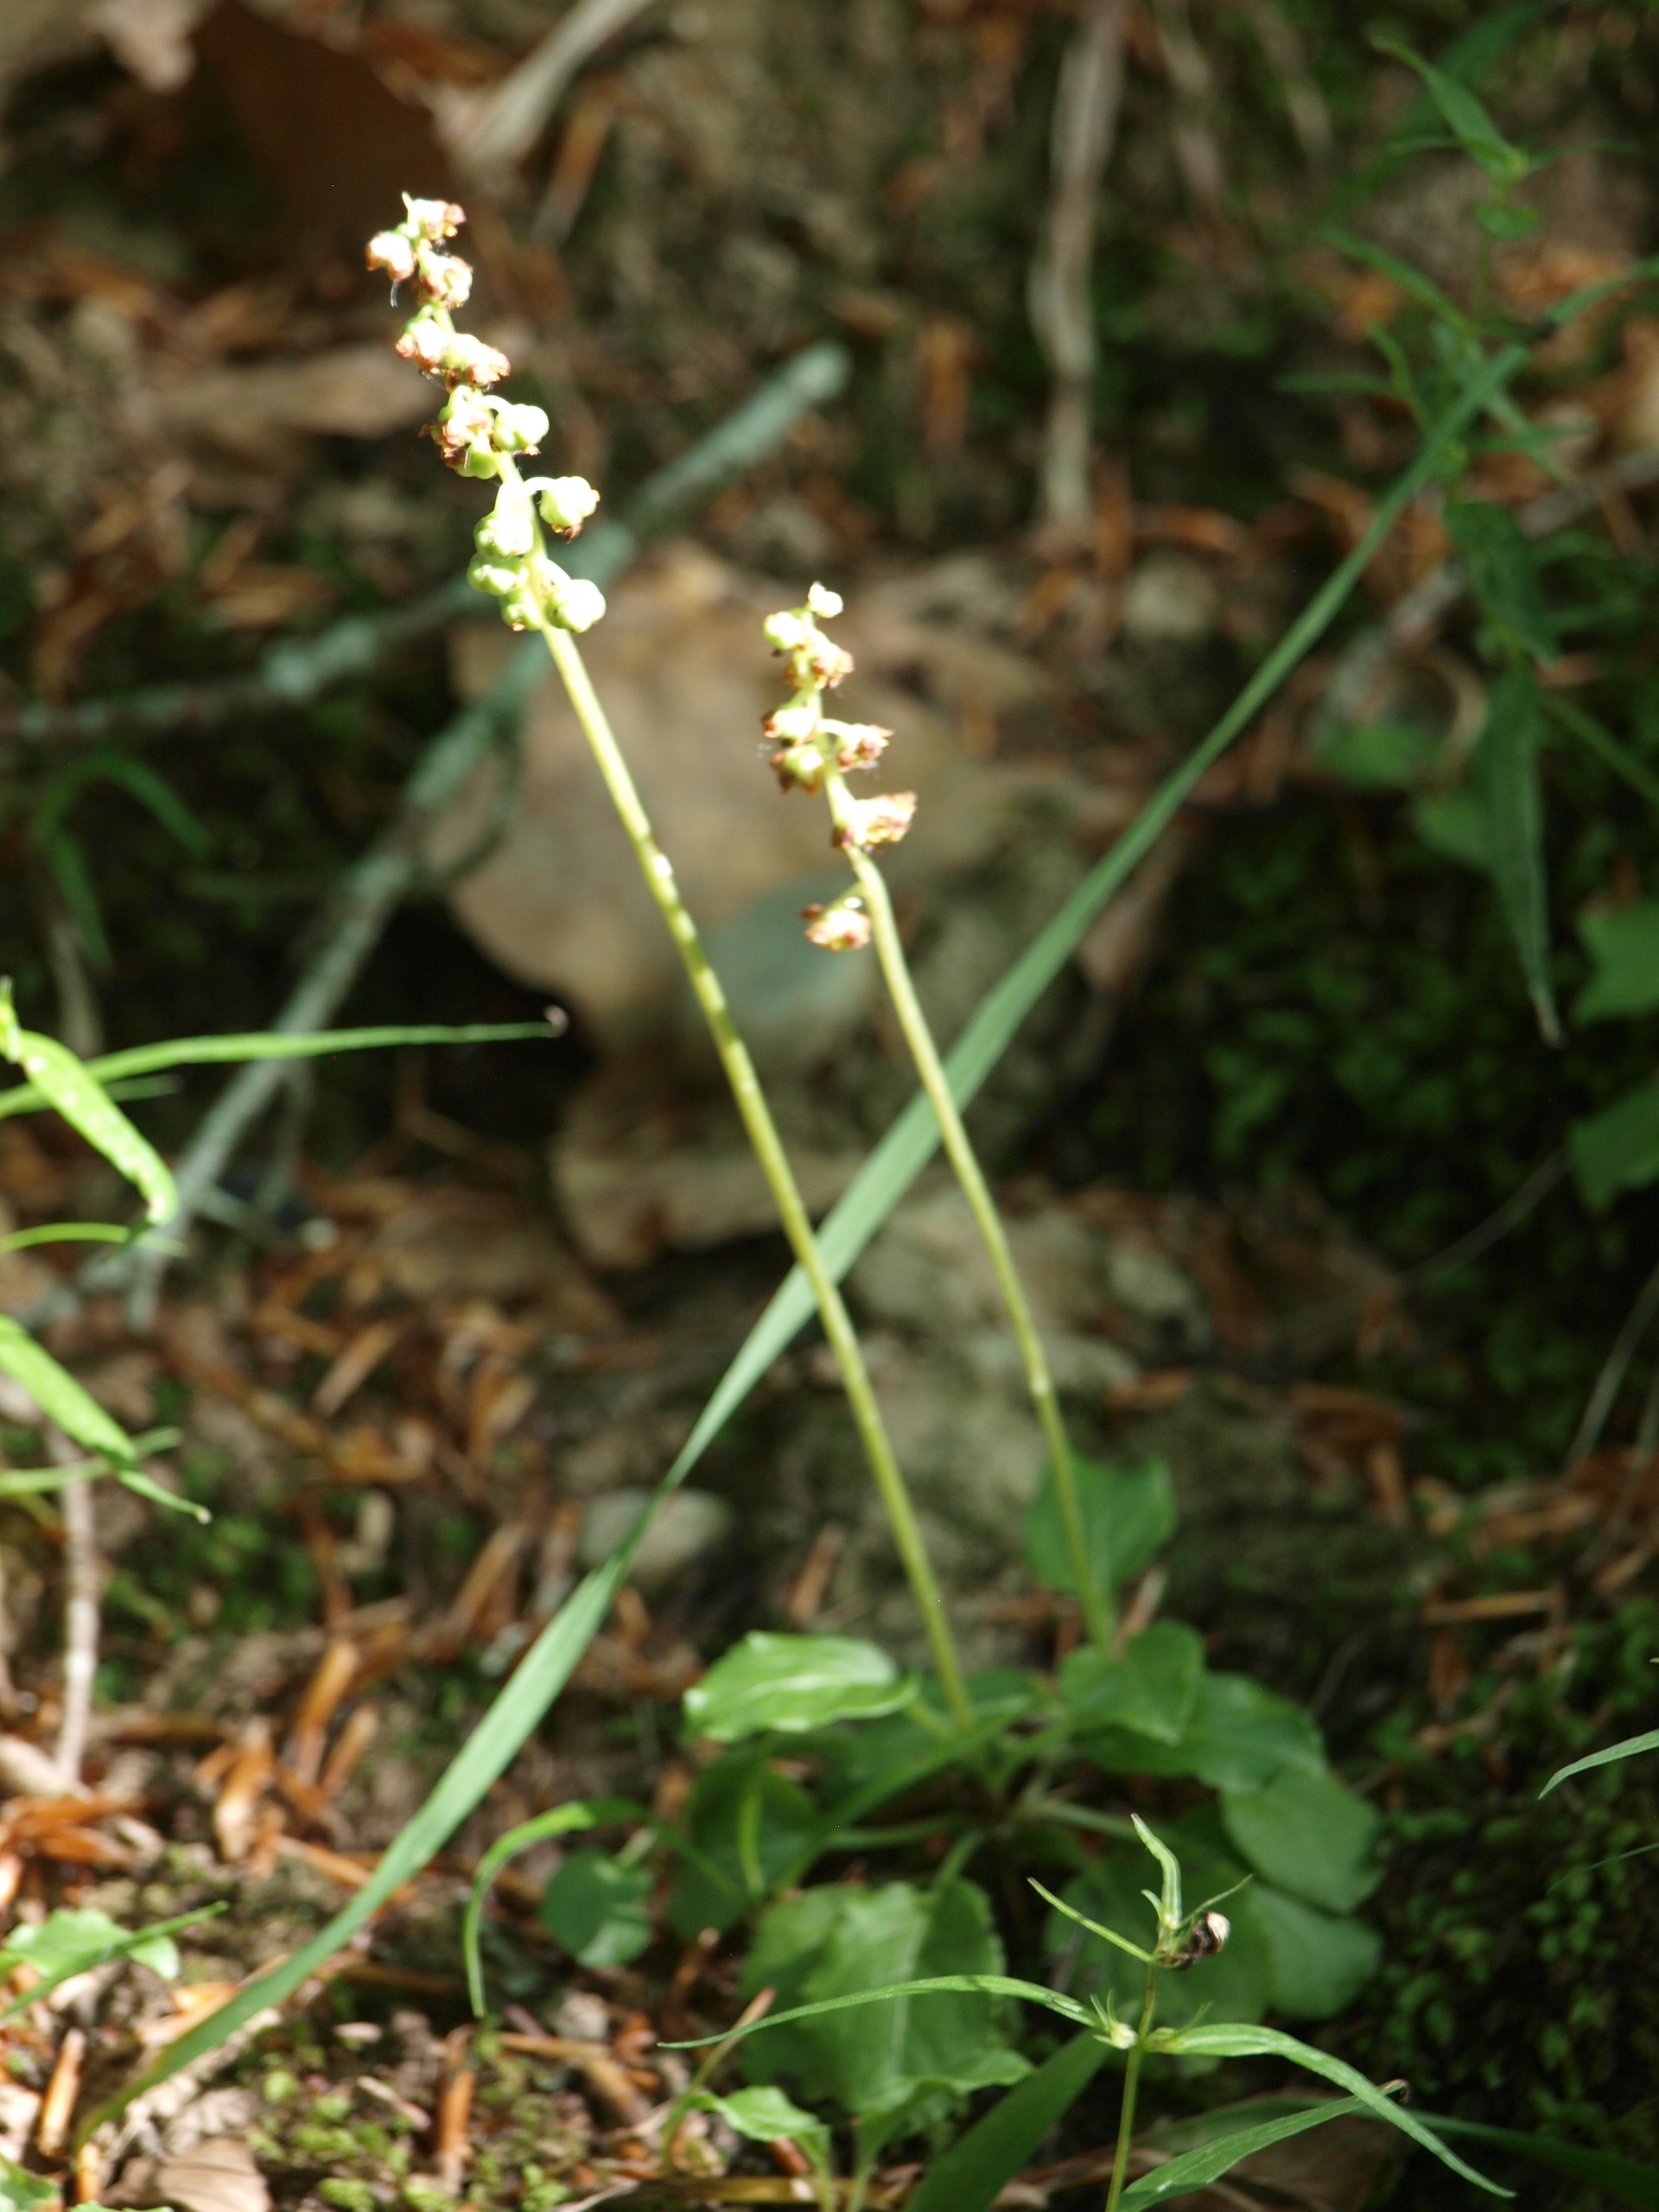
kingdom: Plantae
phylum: Tracheophyta
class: Magnoliopsida
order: Ericales
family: Ericaceae
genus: Pyrola
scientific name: Pyrola minor
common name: Liden vintergrøn
